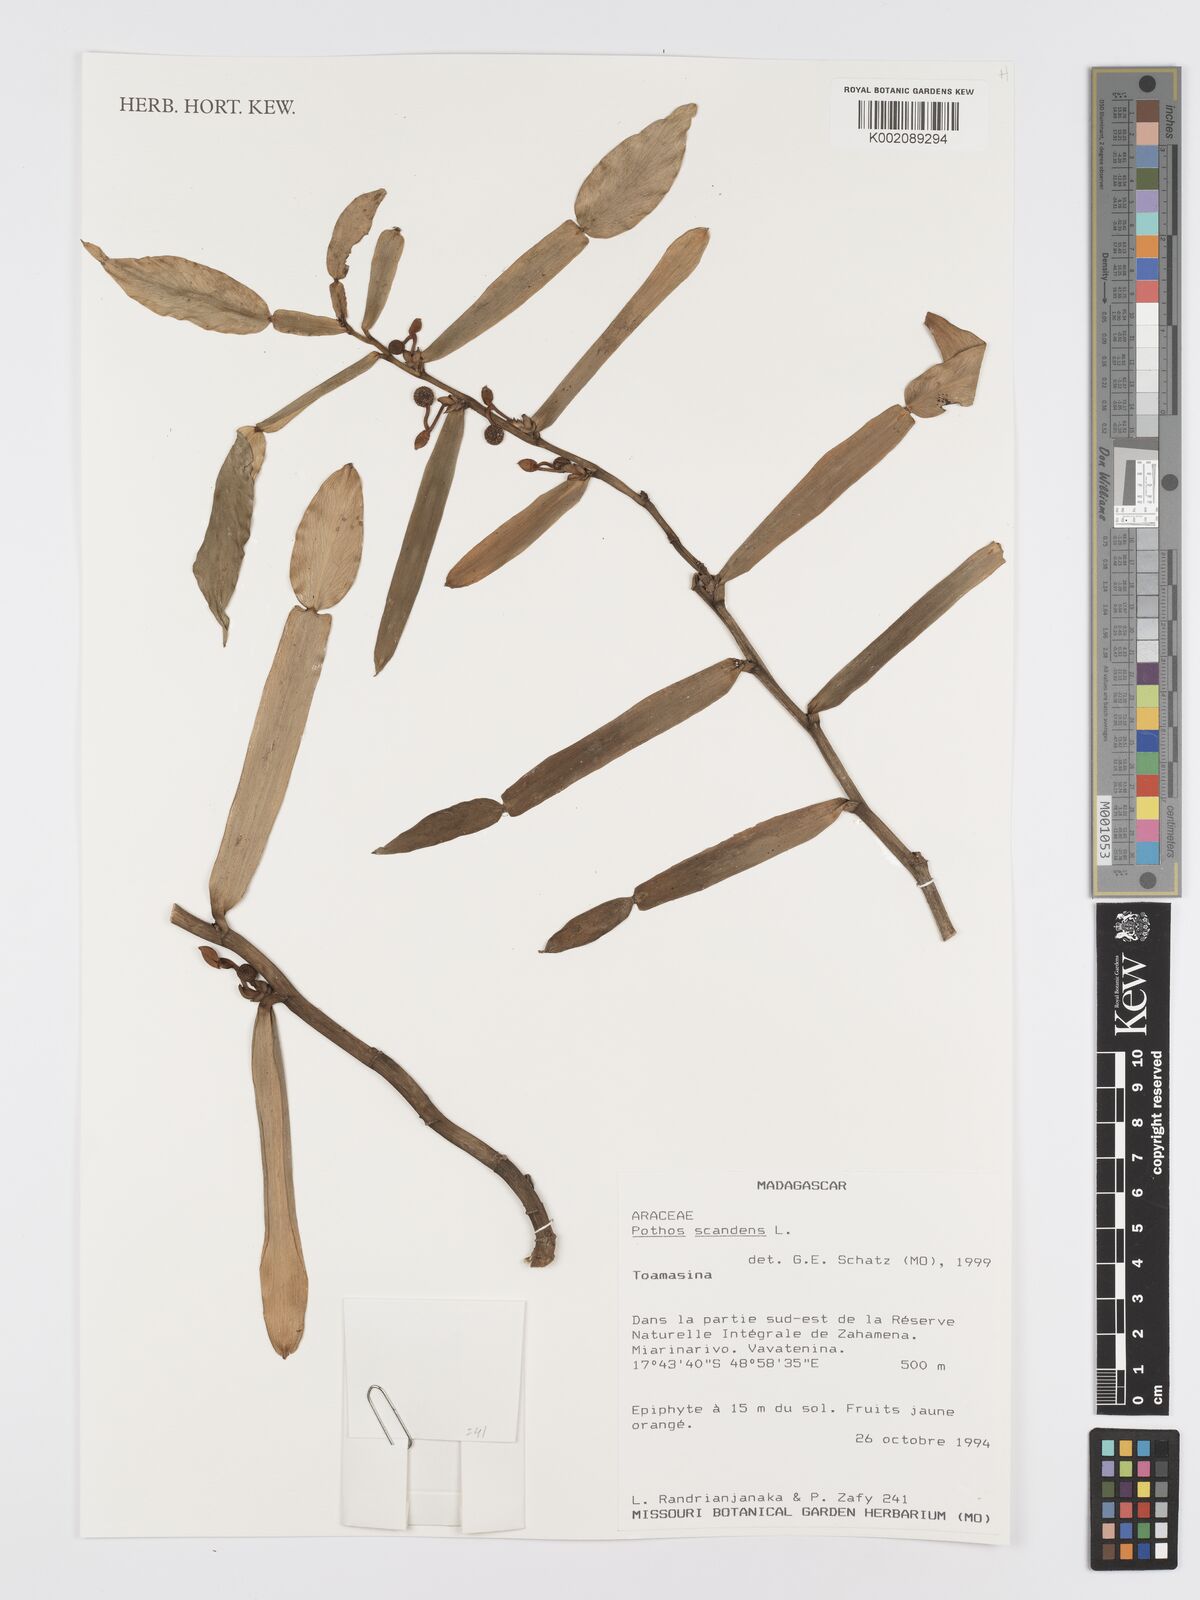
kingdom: Plantae
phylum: Tracheophyta
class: Liliopsida
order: Alismatales
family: Araceae
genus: Pothos
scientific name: Pothos scandens
